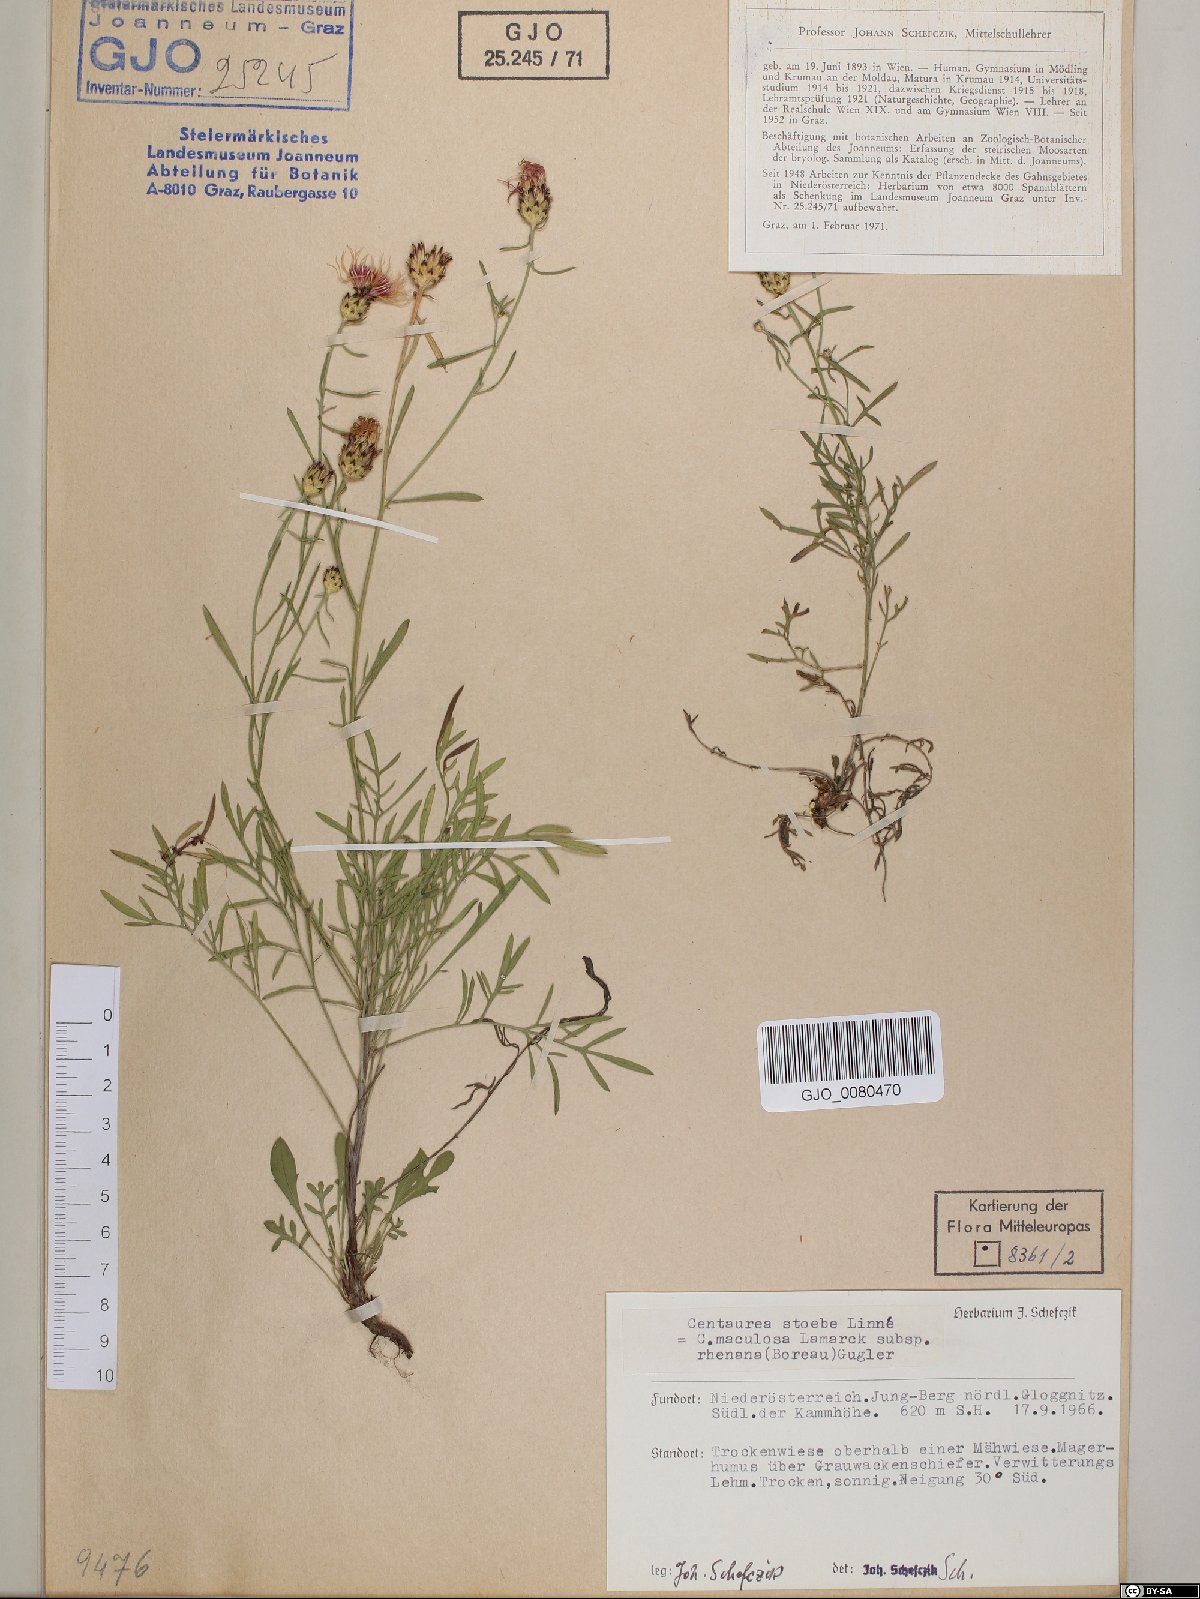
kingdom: Plantae
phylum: Tracheophyta
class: Magnoliopsida
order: Asterales
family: Asteraceae
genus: Centaurea
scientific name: Centaurea stoebe
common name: Spotted knapweed
